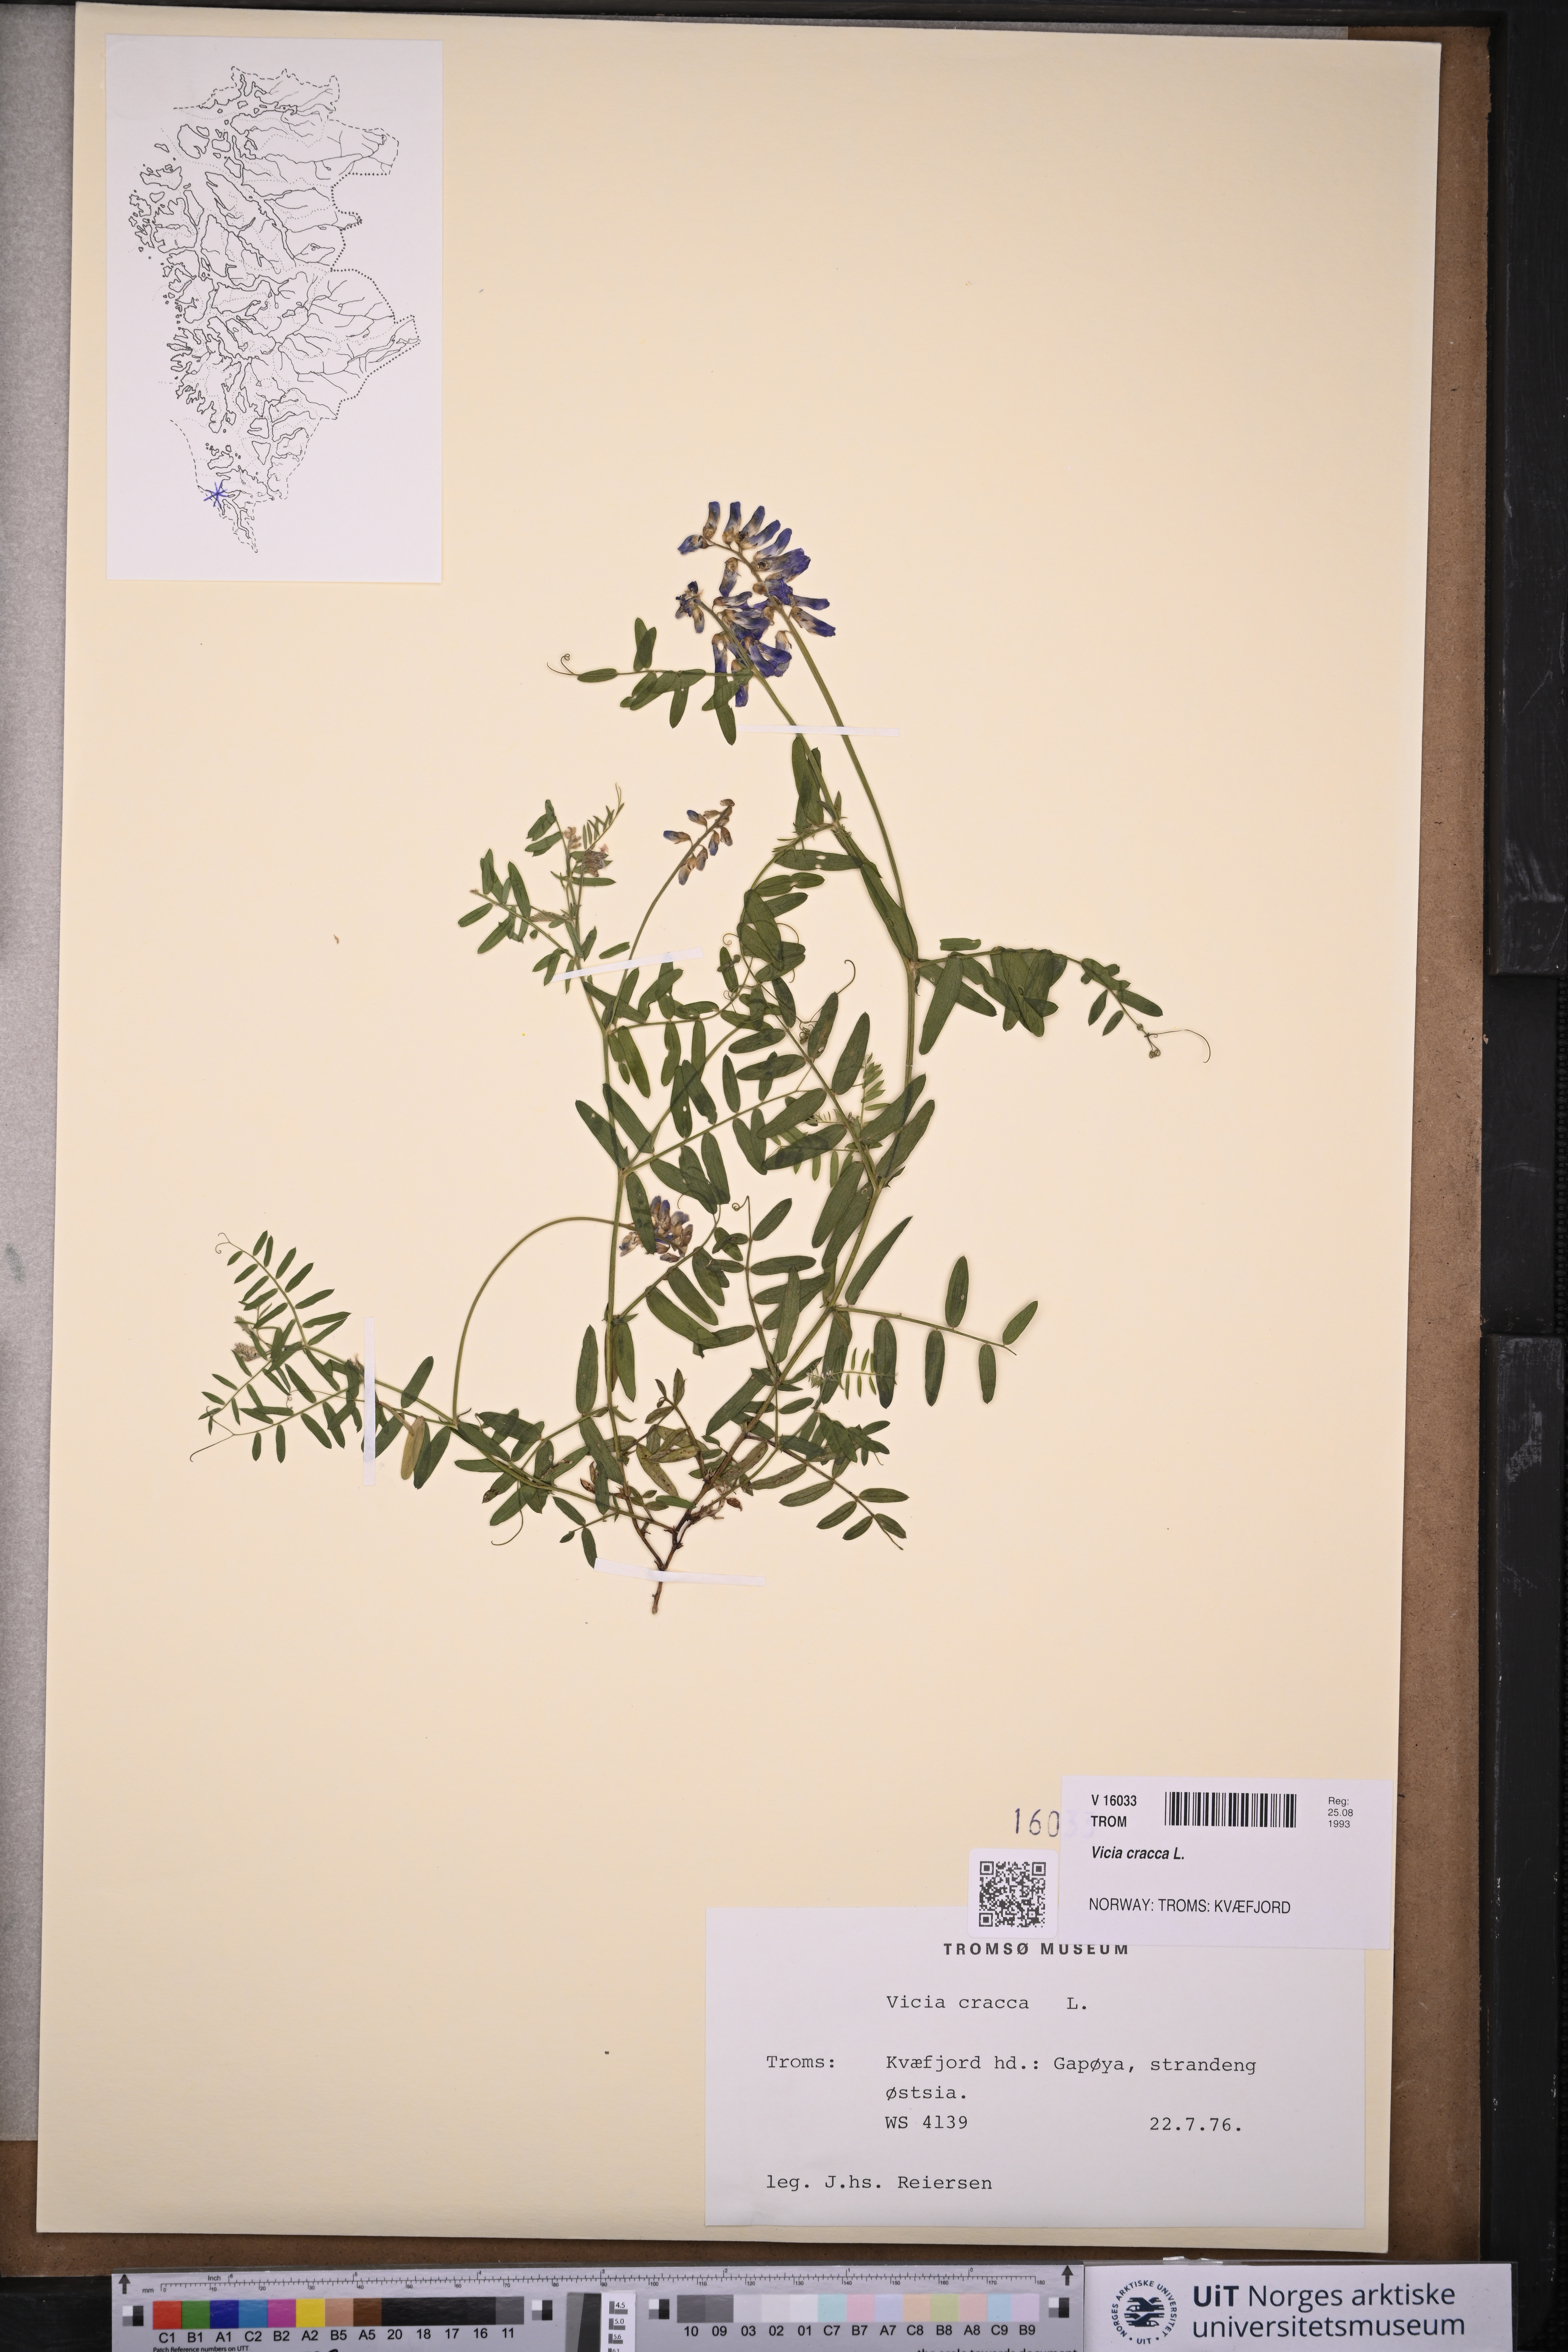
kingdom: Plantae
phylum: Tracheophyta
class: Magnoliopsida
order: Fabales
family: Fabaceae
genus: Vicia
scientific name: Vicia cracca
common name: Bird vetch
